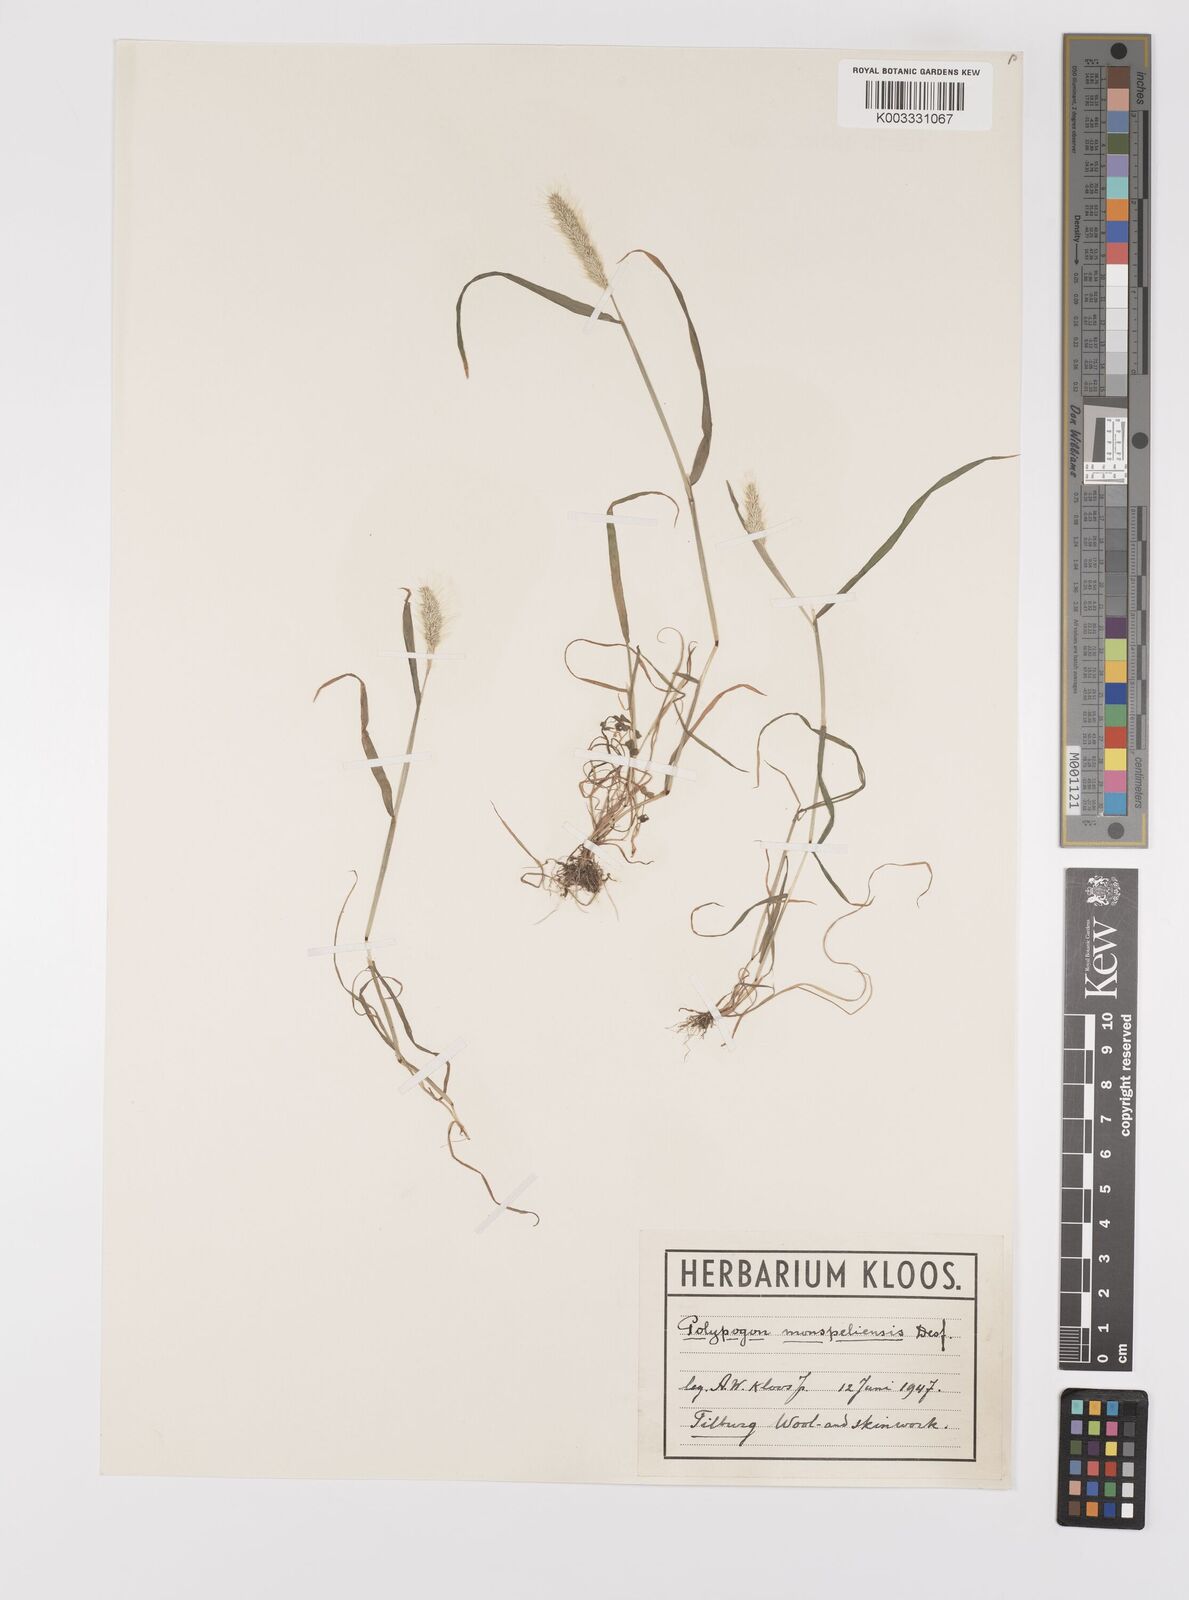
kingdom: Plantae
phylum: Tracheophyta
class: Liliopsida
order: Poales
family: Poaceae
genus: Polypogon
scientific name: Polypogon monspeliensis
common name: Annual rabbitsfoot grass
